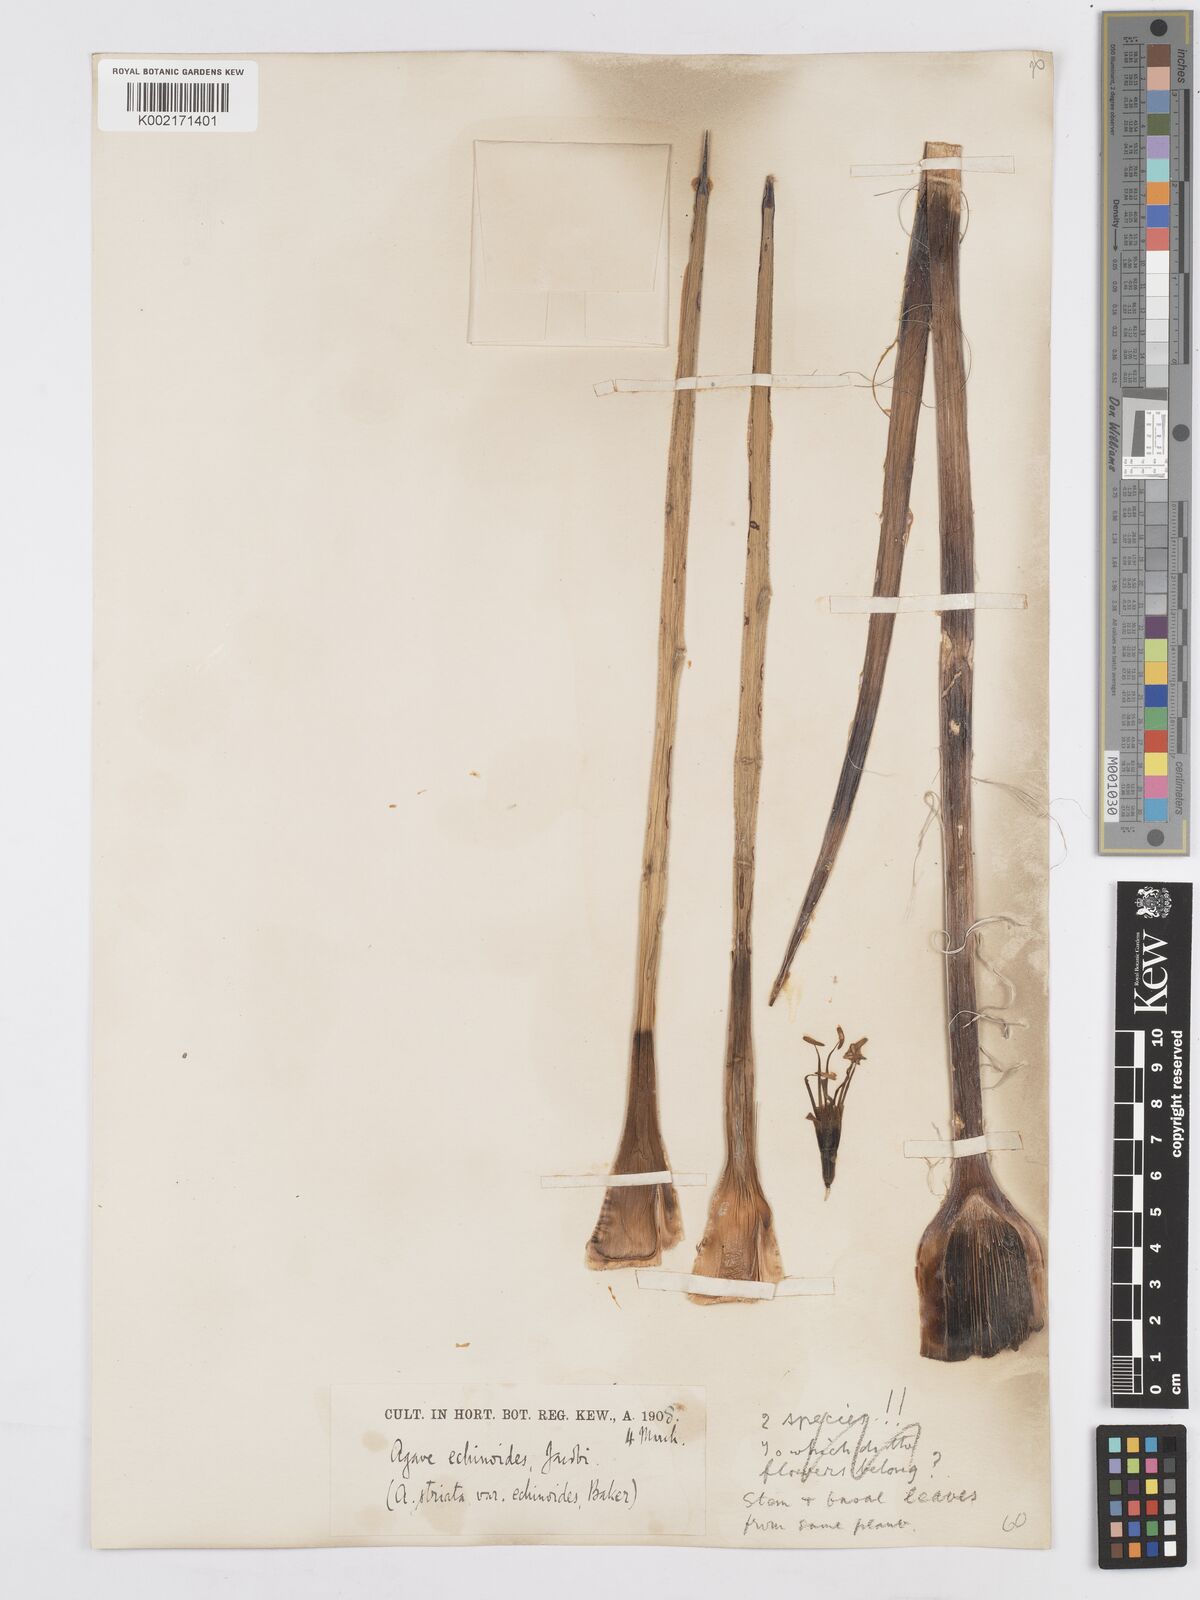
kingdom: Plantae
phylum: Tracheophyta
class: Liliopsida
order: Asparagales
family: Asparagaceae
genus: Agave
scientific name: Agave striata
